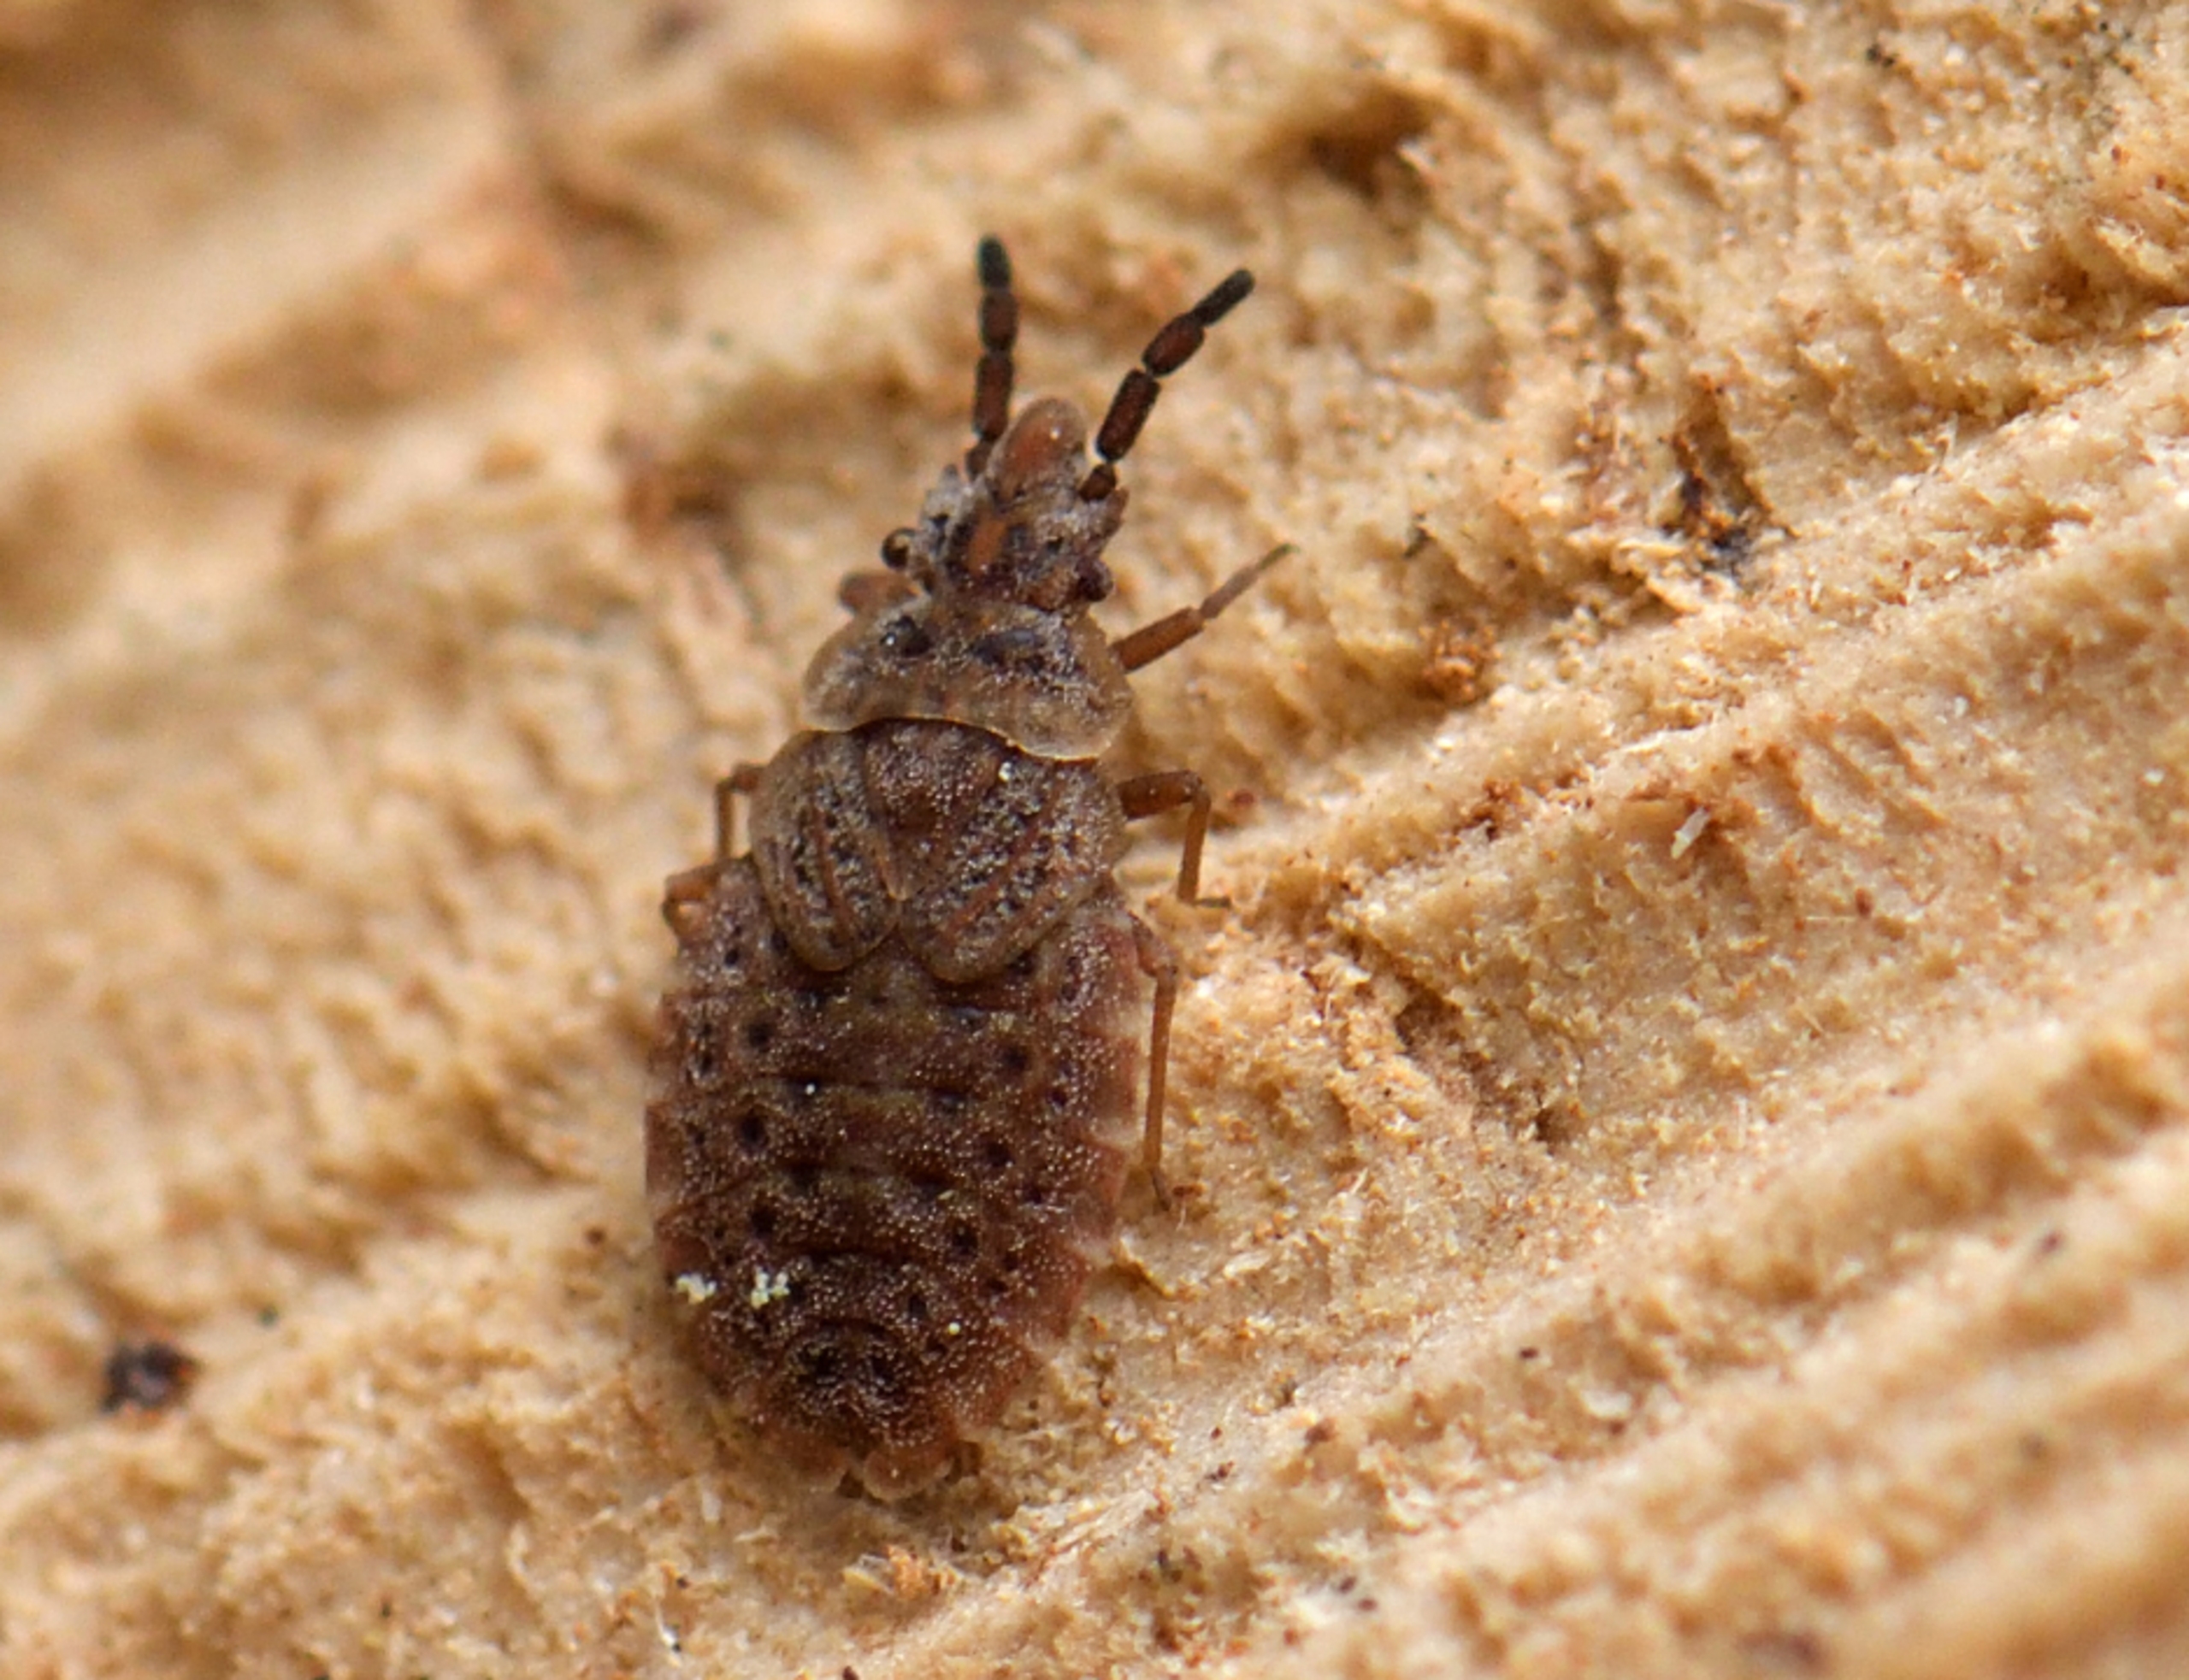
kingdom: Animalia
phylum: Arthropoda
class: Insecta
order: Hemiptera
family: Aradidae
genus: Aradus
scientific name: Aradus cinnamomeus
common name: Fyrrebarktæge
